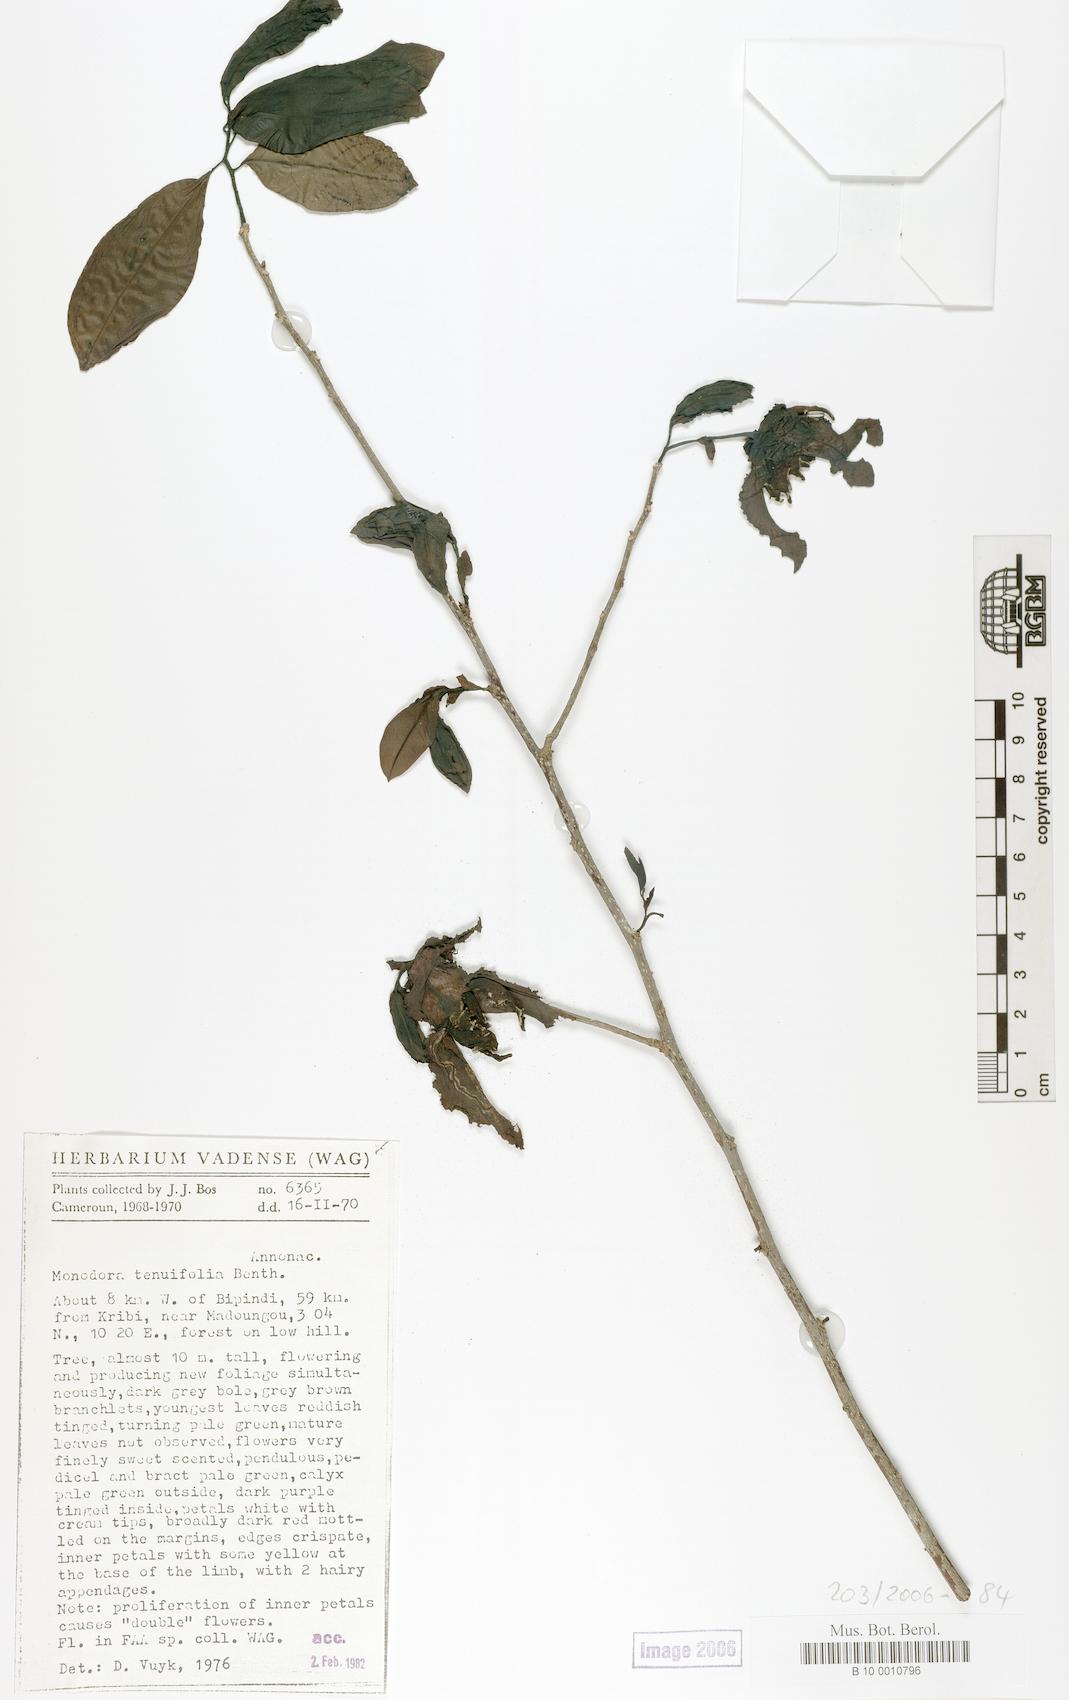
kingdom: Plantae
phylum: Tracheophyta
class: Magnoliopsida
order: Magnoliales
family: Annonaceae
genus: Monodora
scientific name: Monodora tenuifolia
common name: Orchidtree
